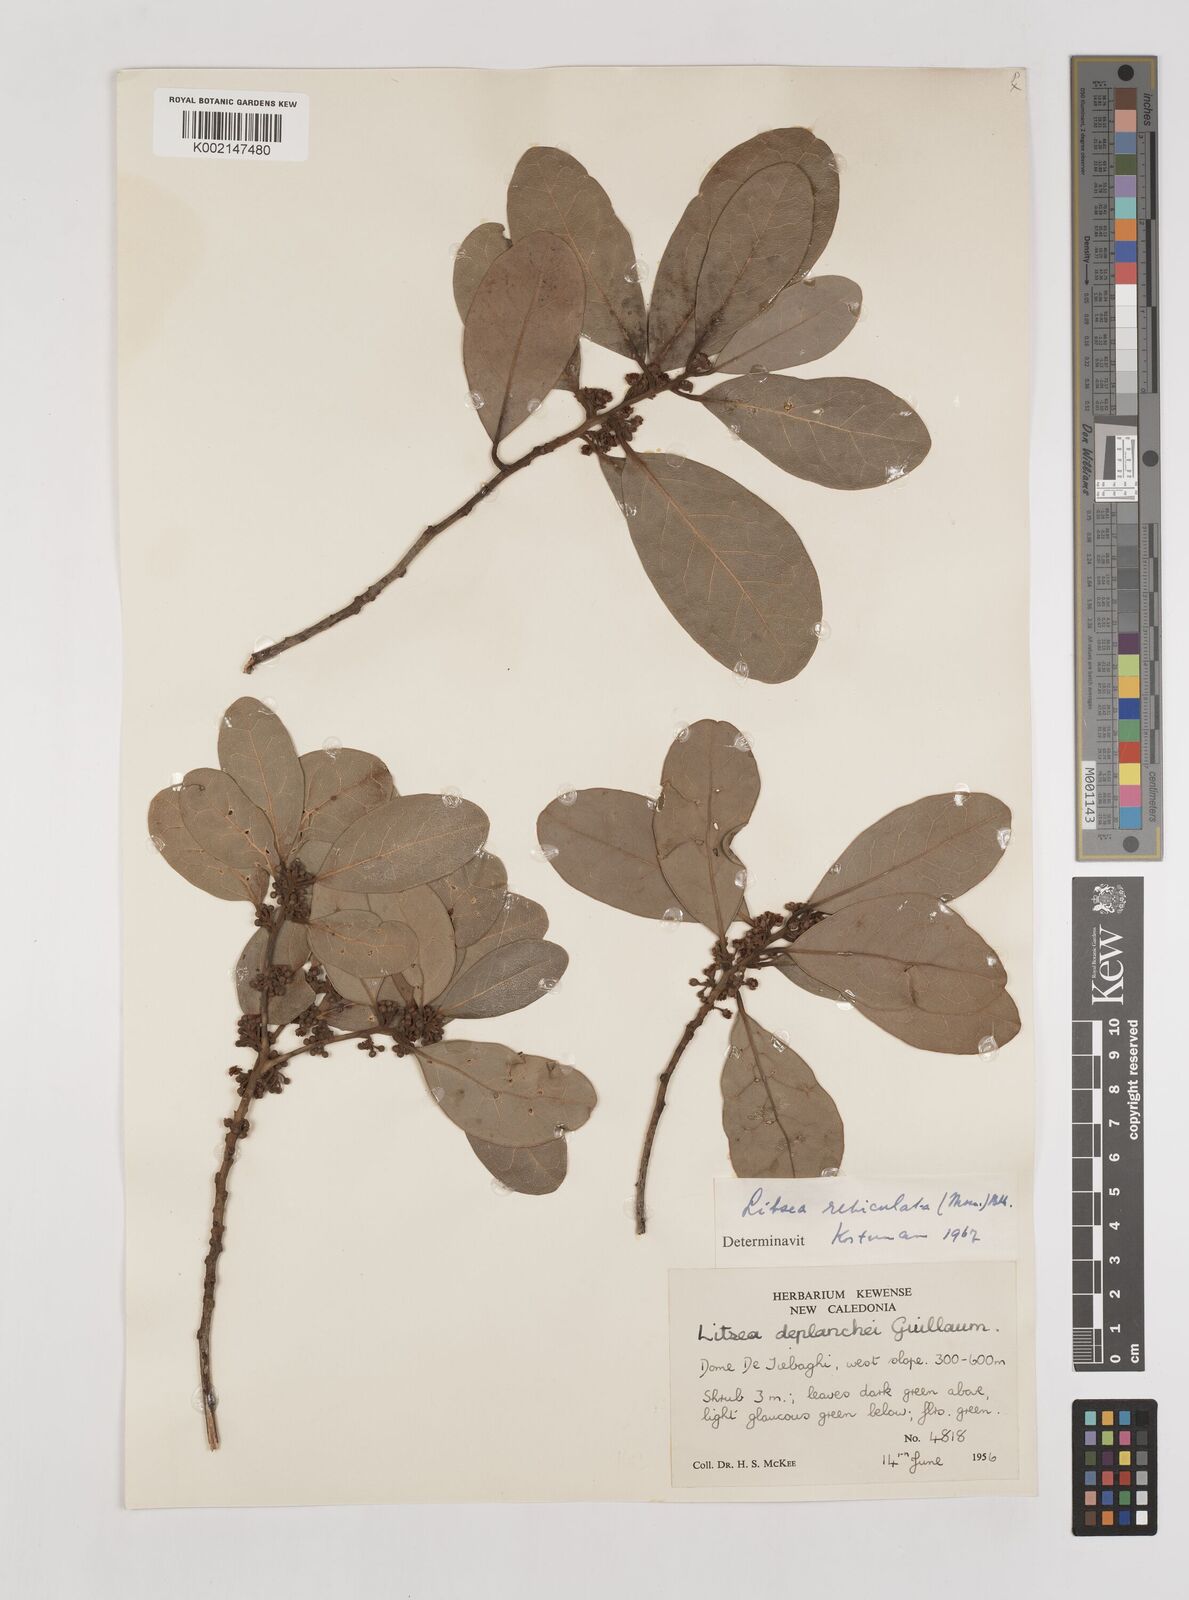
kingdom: Plantae
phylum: Tracheophyta
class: Magnoliopsida
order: Laurales
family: Lauraceae
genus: Litsea
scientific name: Litsea reticulata
